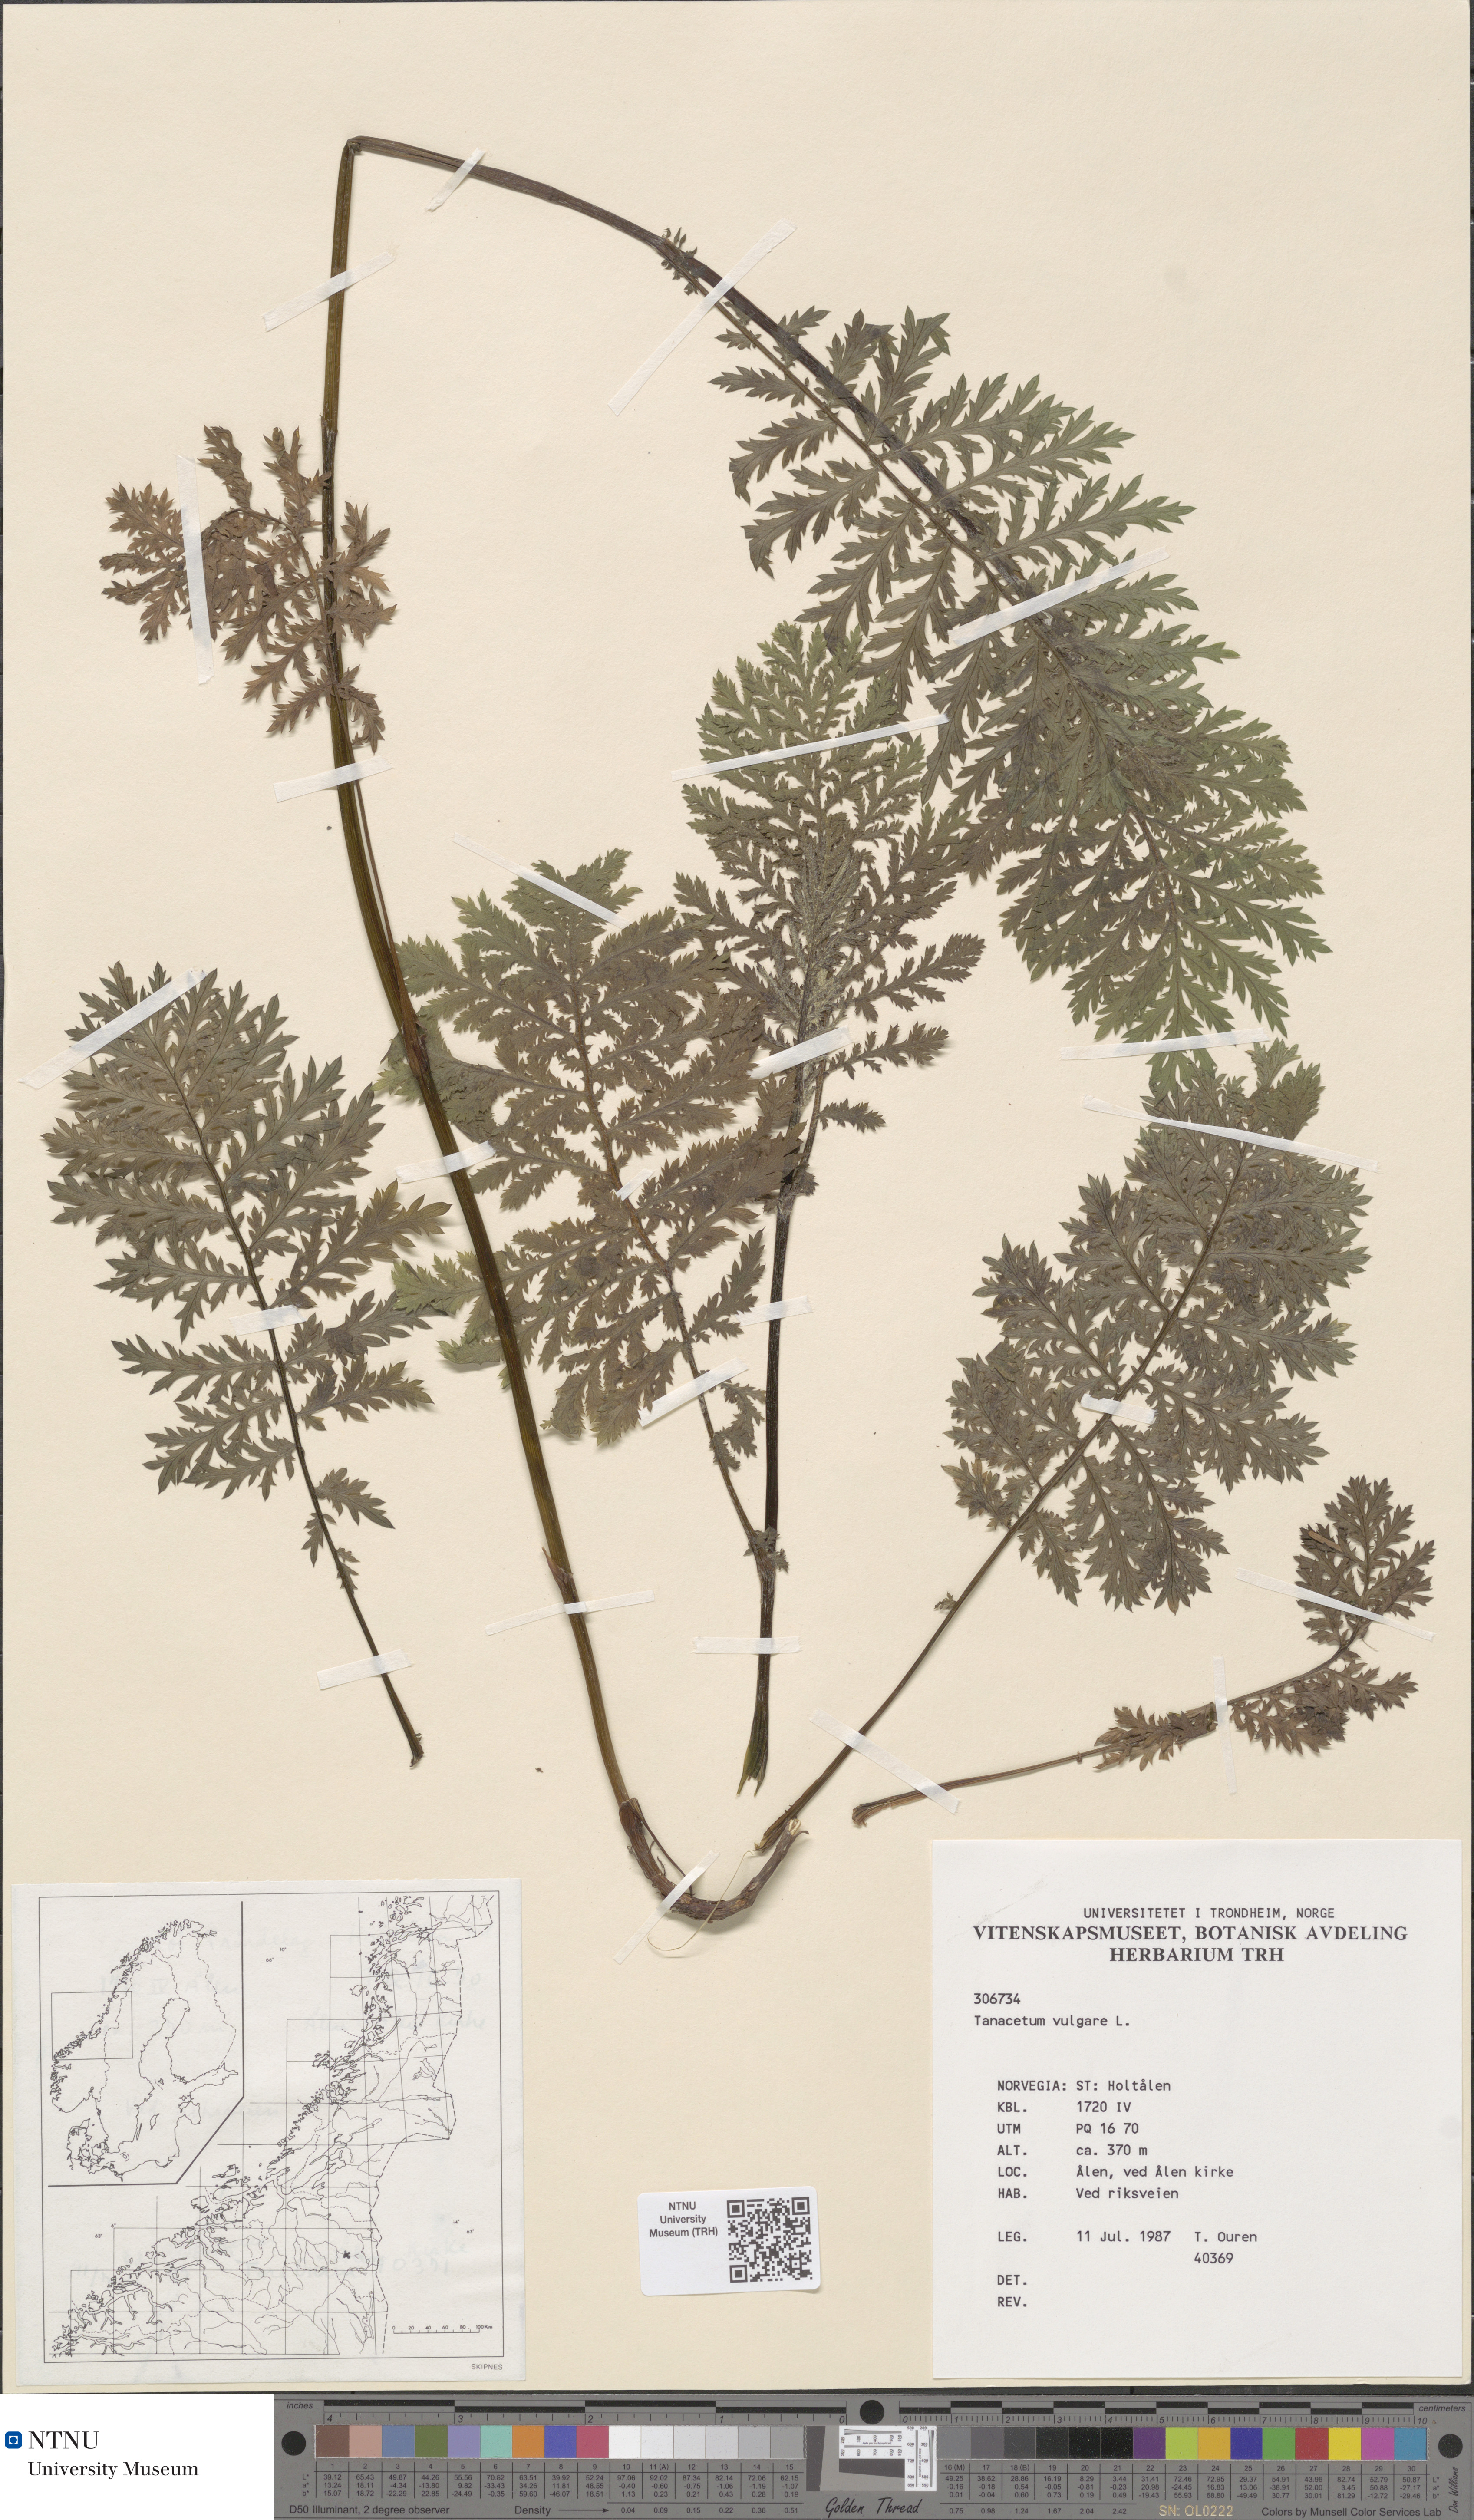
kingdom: Plantae
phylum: Tracheophyta
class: Magnoliopsida
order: Asterales
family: Asteraceae
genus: Tanacetum
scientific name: Tanacetum vulgare
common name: Common tansy
